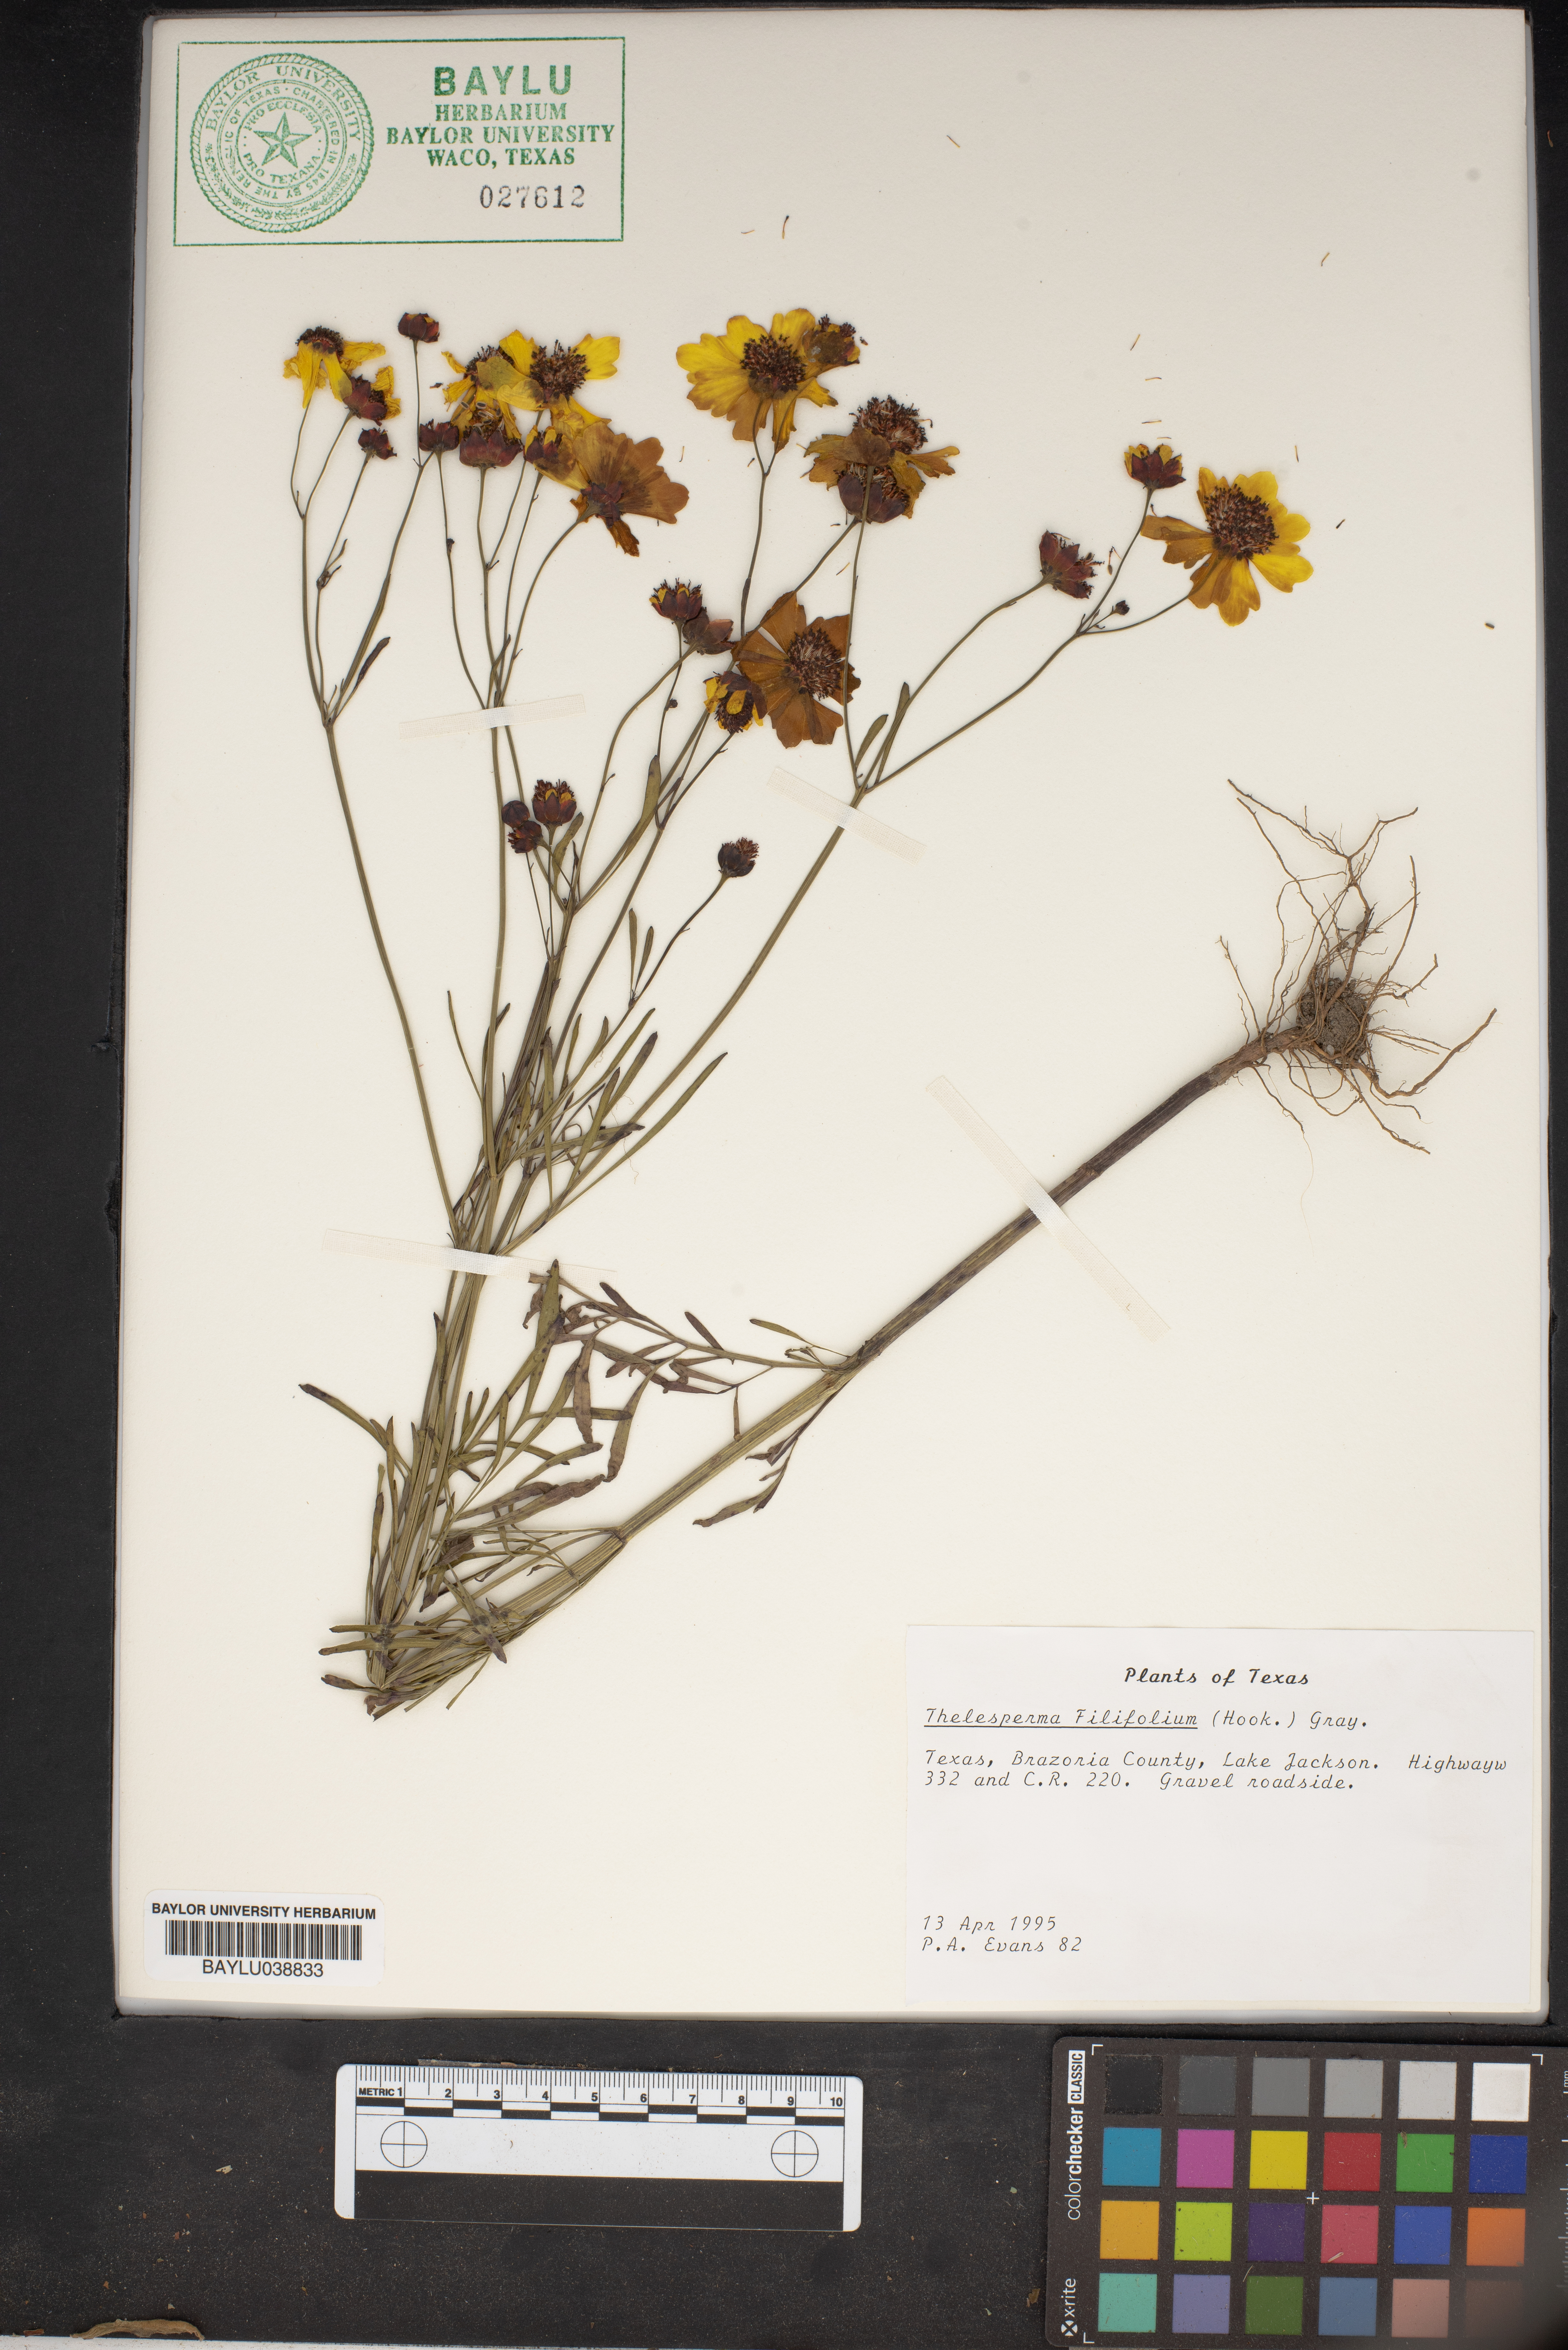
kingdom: Plantae
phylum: Tracheophyta
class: Magnoliopsida
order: Asterales
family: Asteraceae
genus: Thelesperma
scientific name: Thelesperma filifolium
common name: Stiff greenthread
